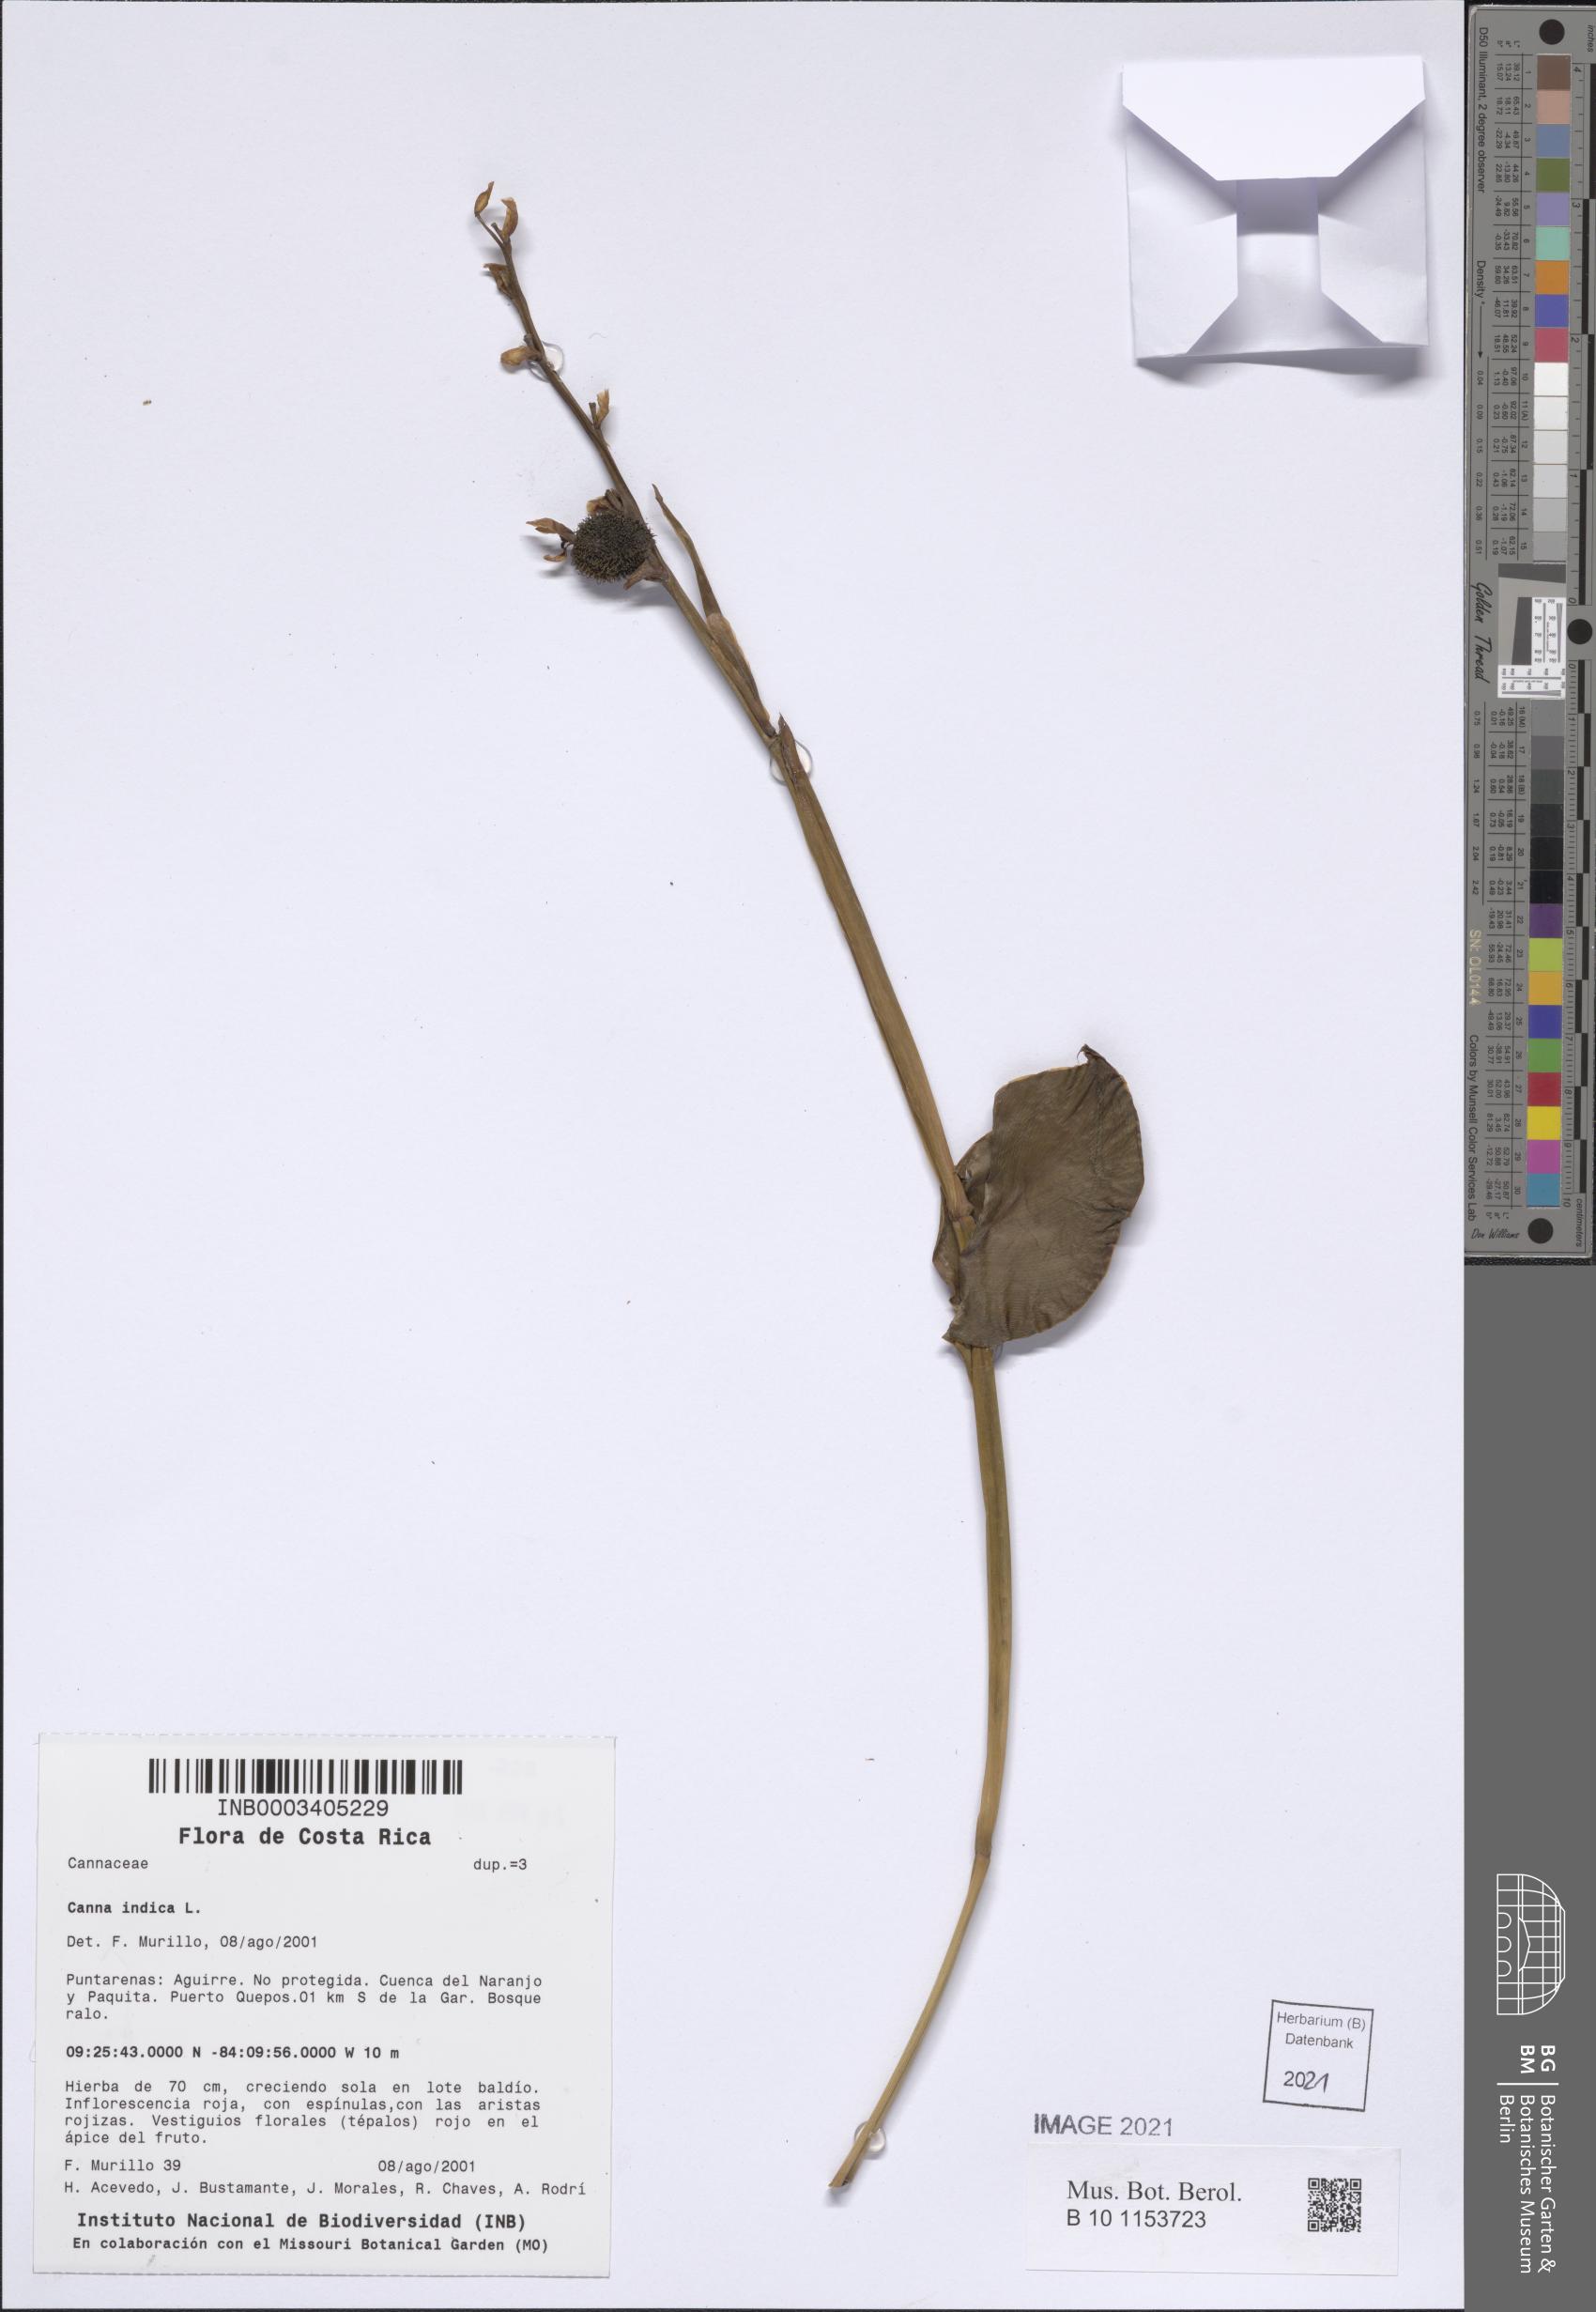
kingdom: Plantae
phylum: Tracheophyta
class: Liliopsida
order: Zingiberales
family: Cannaceae
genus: Canna
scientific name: Canna indica
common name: Indian shot
